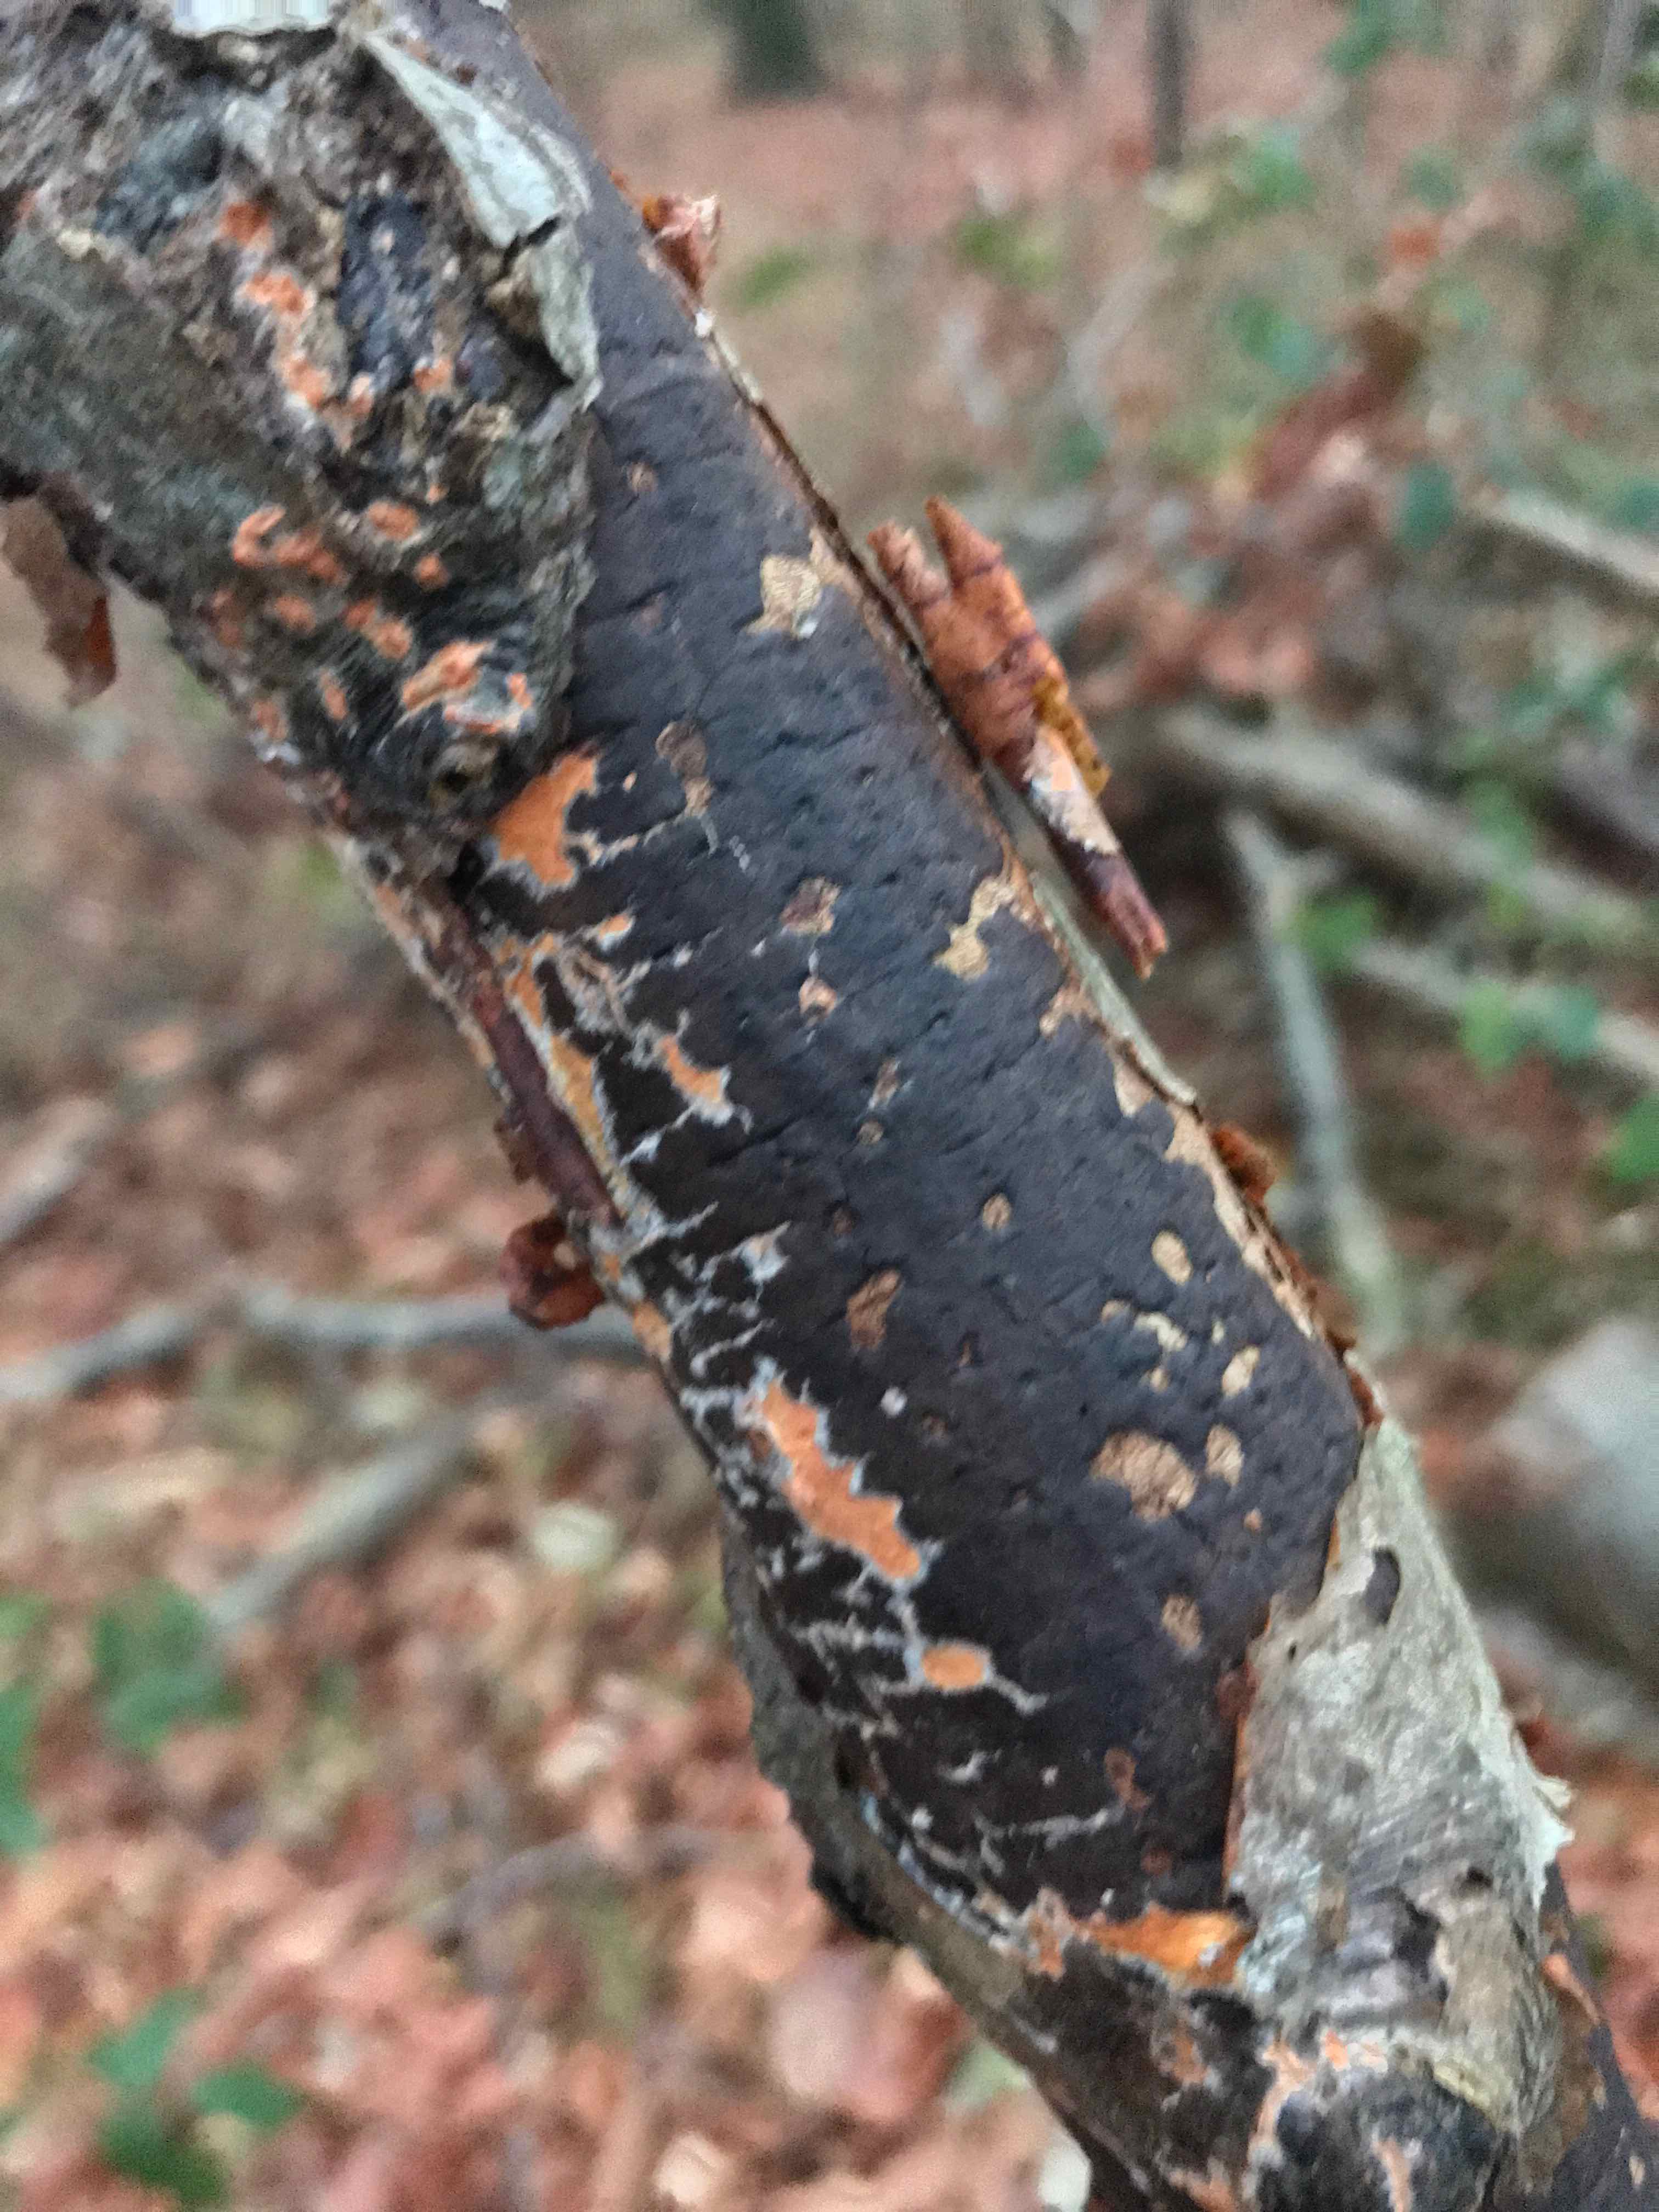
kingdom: Fungi
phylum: Ascomycota
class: Sordariomycetes
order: Xylariales
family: Diatrypaceae
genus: Diatrype
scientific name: Diatrype decorticata
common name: barksprænger-kulskorpe
